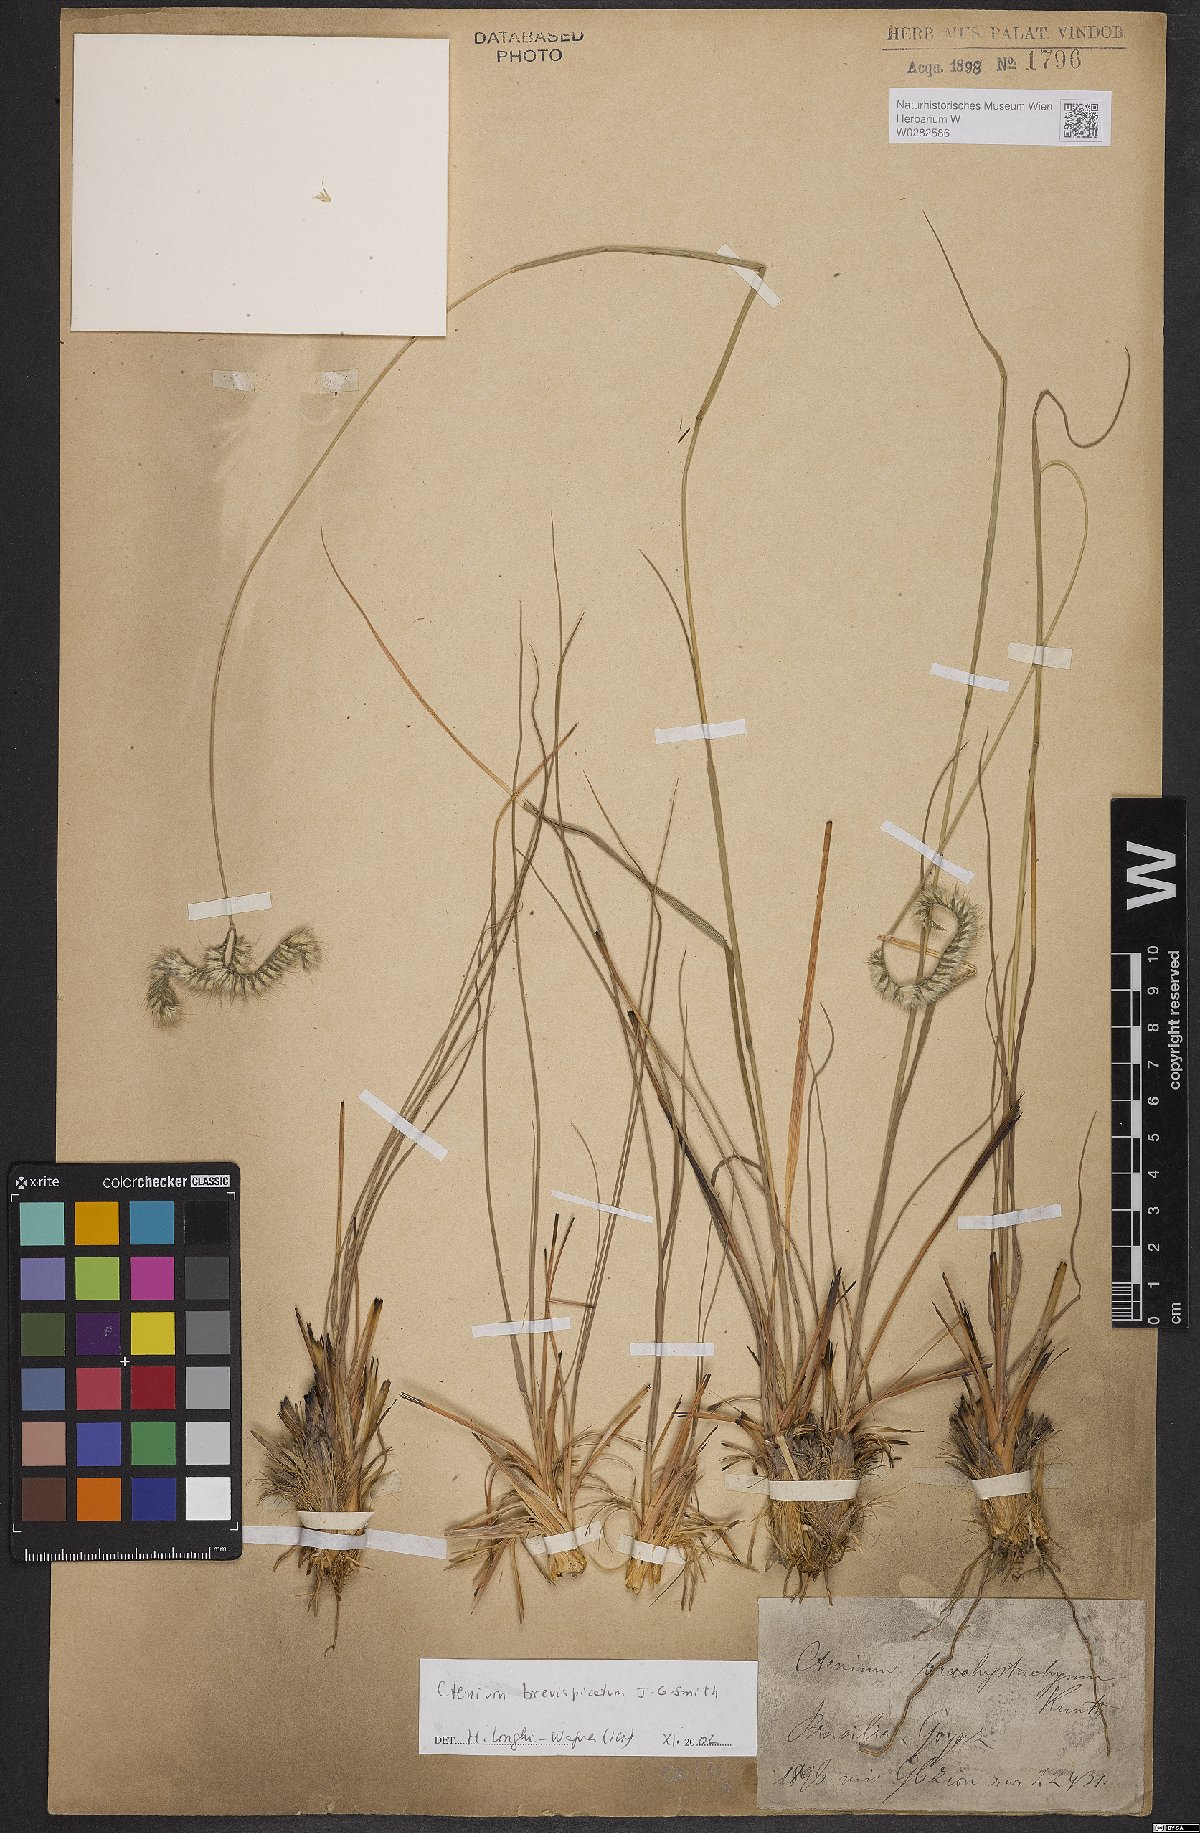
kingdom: Plantae
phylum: Tracheophyta
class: Liliopsida
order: Poales
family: Poaceae
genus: Ctenium
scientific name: Ctenium brevispicatum
